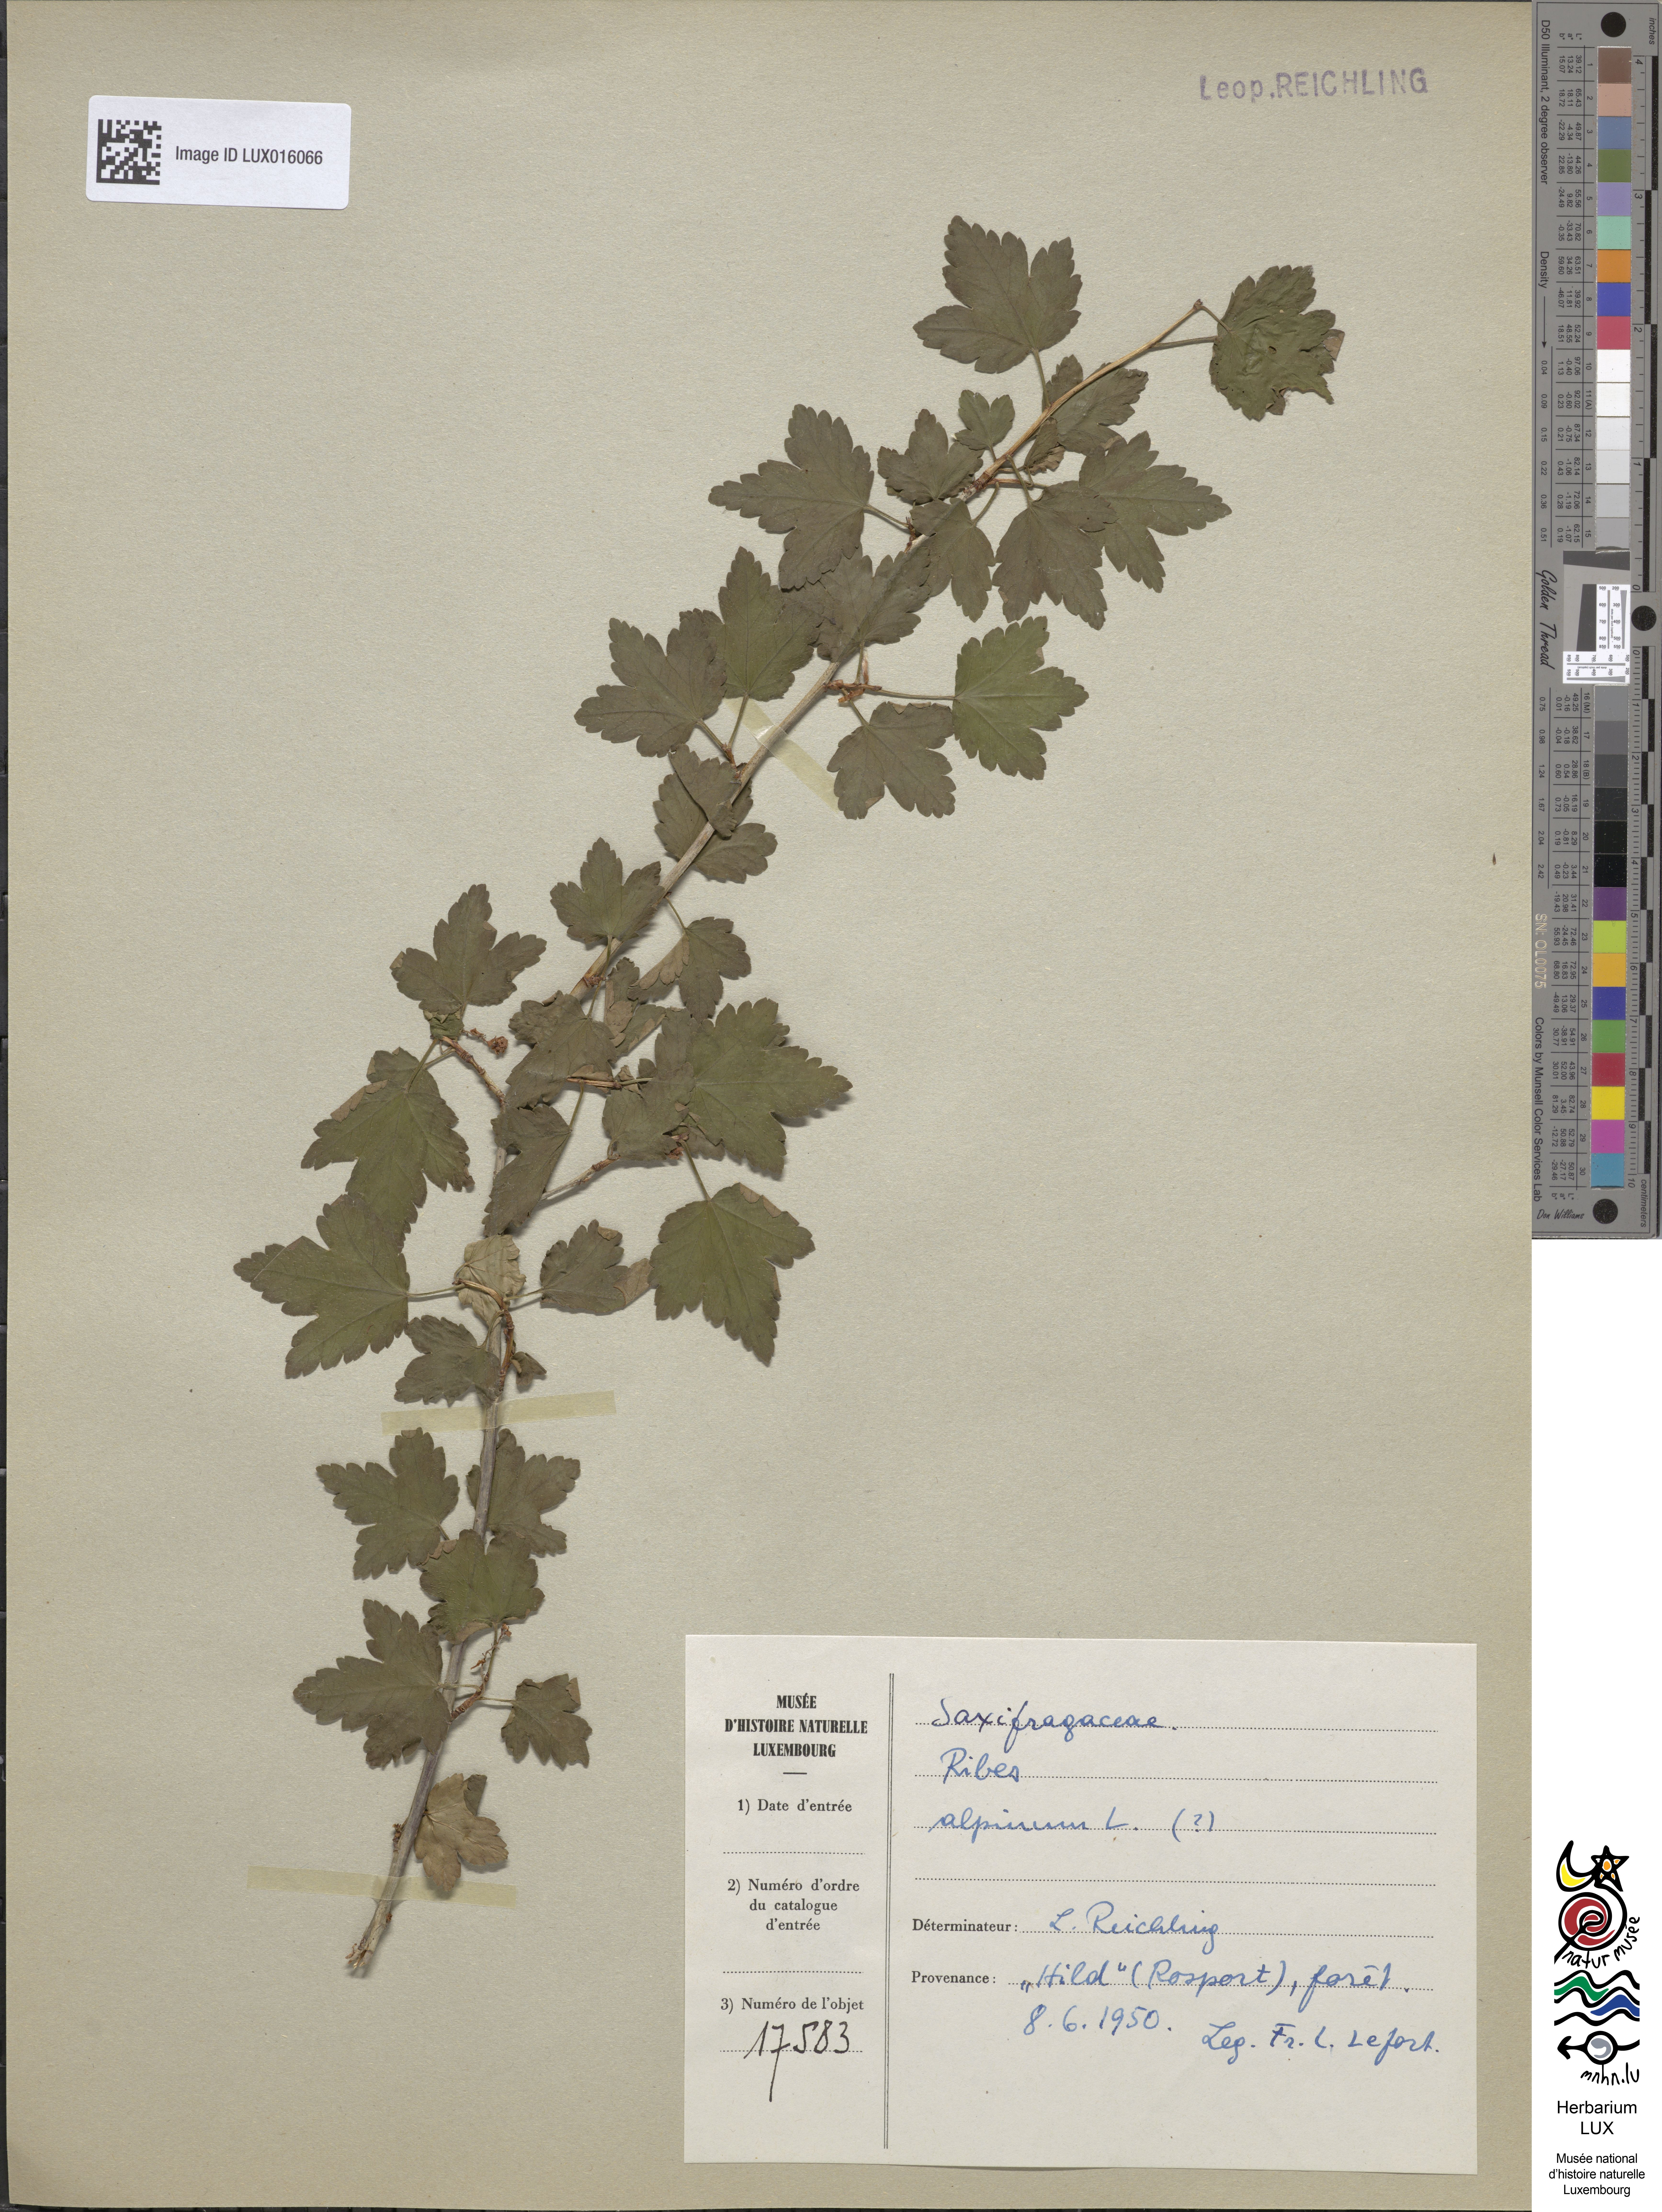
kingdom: Plantae
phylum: Tracheophyta
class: Magnoliopsida
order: Saxifragales
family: Grossulariaceae
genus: Ribes
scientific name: Ribes alpinum
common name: Alpine currant
